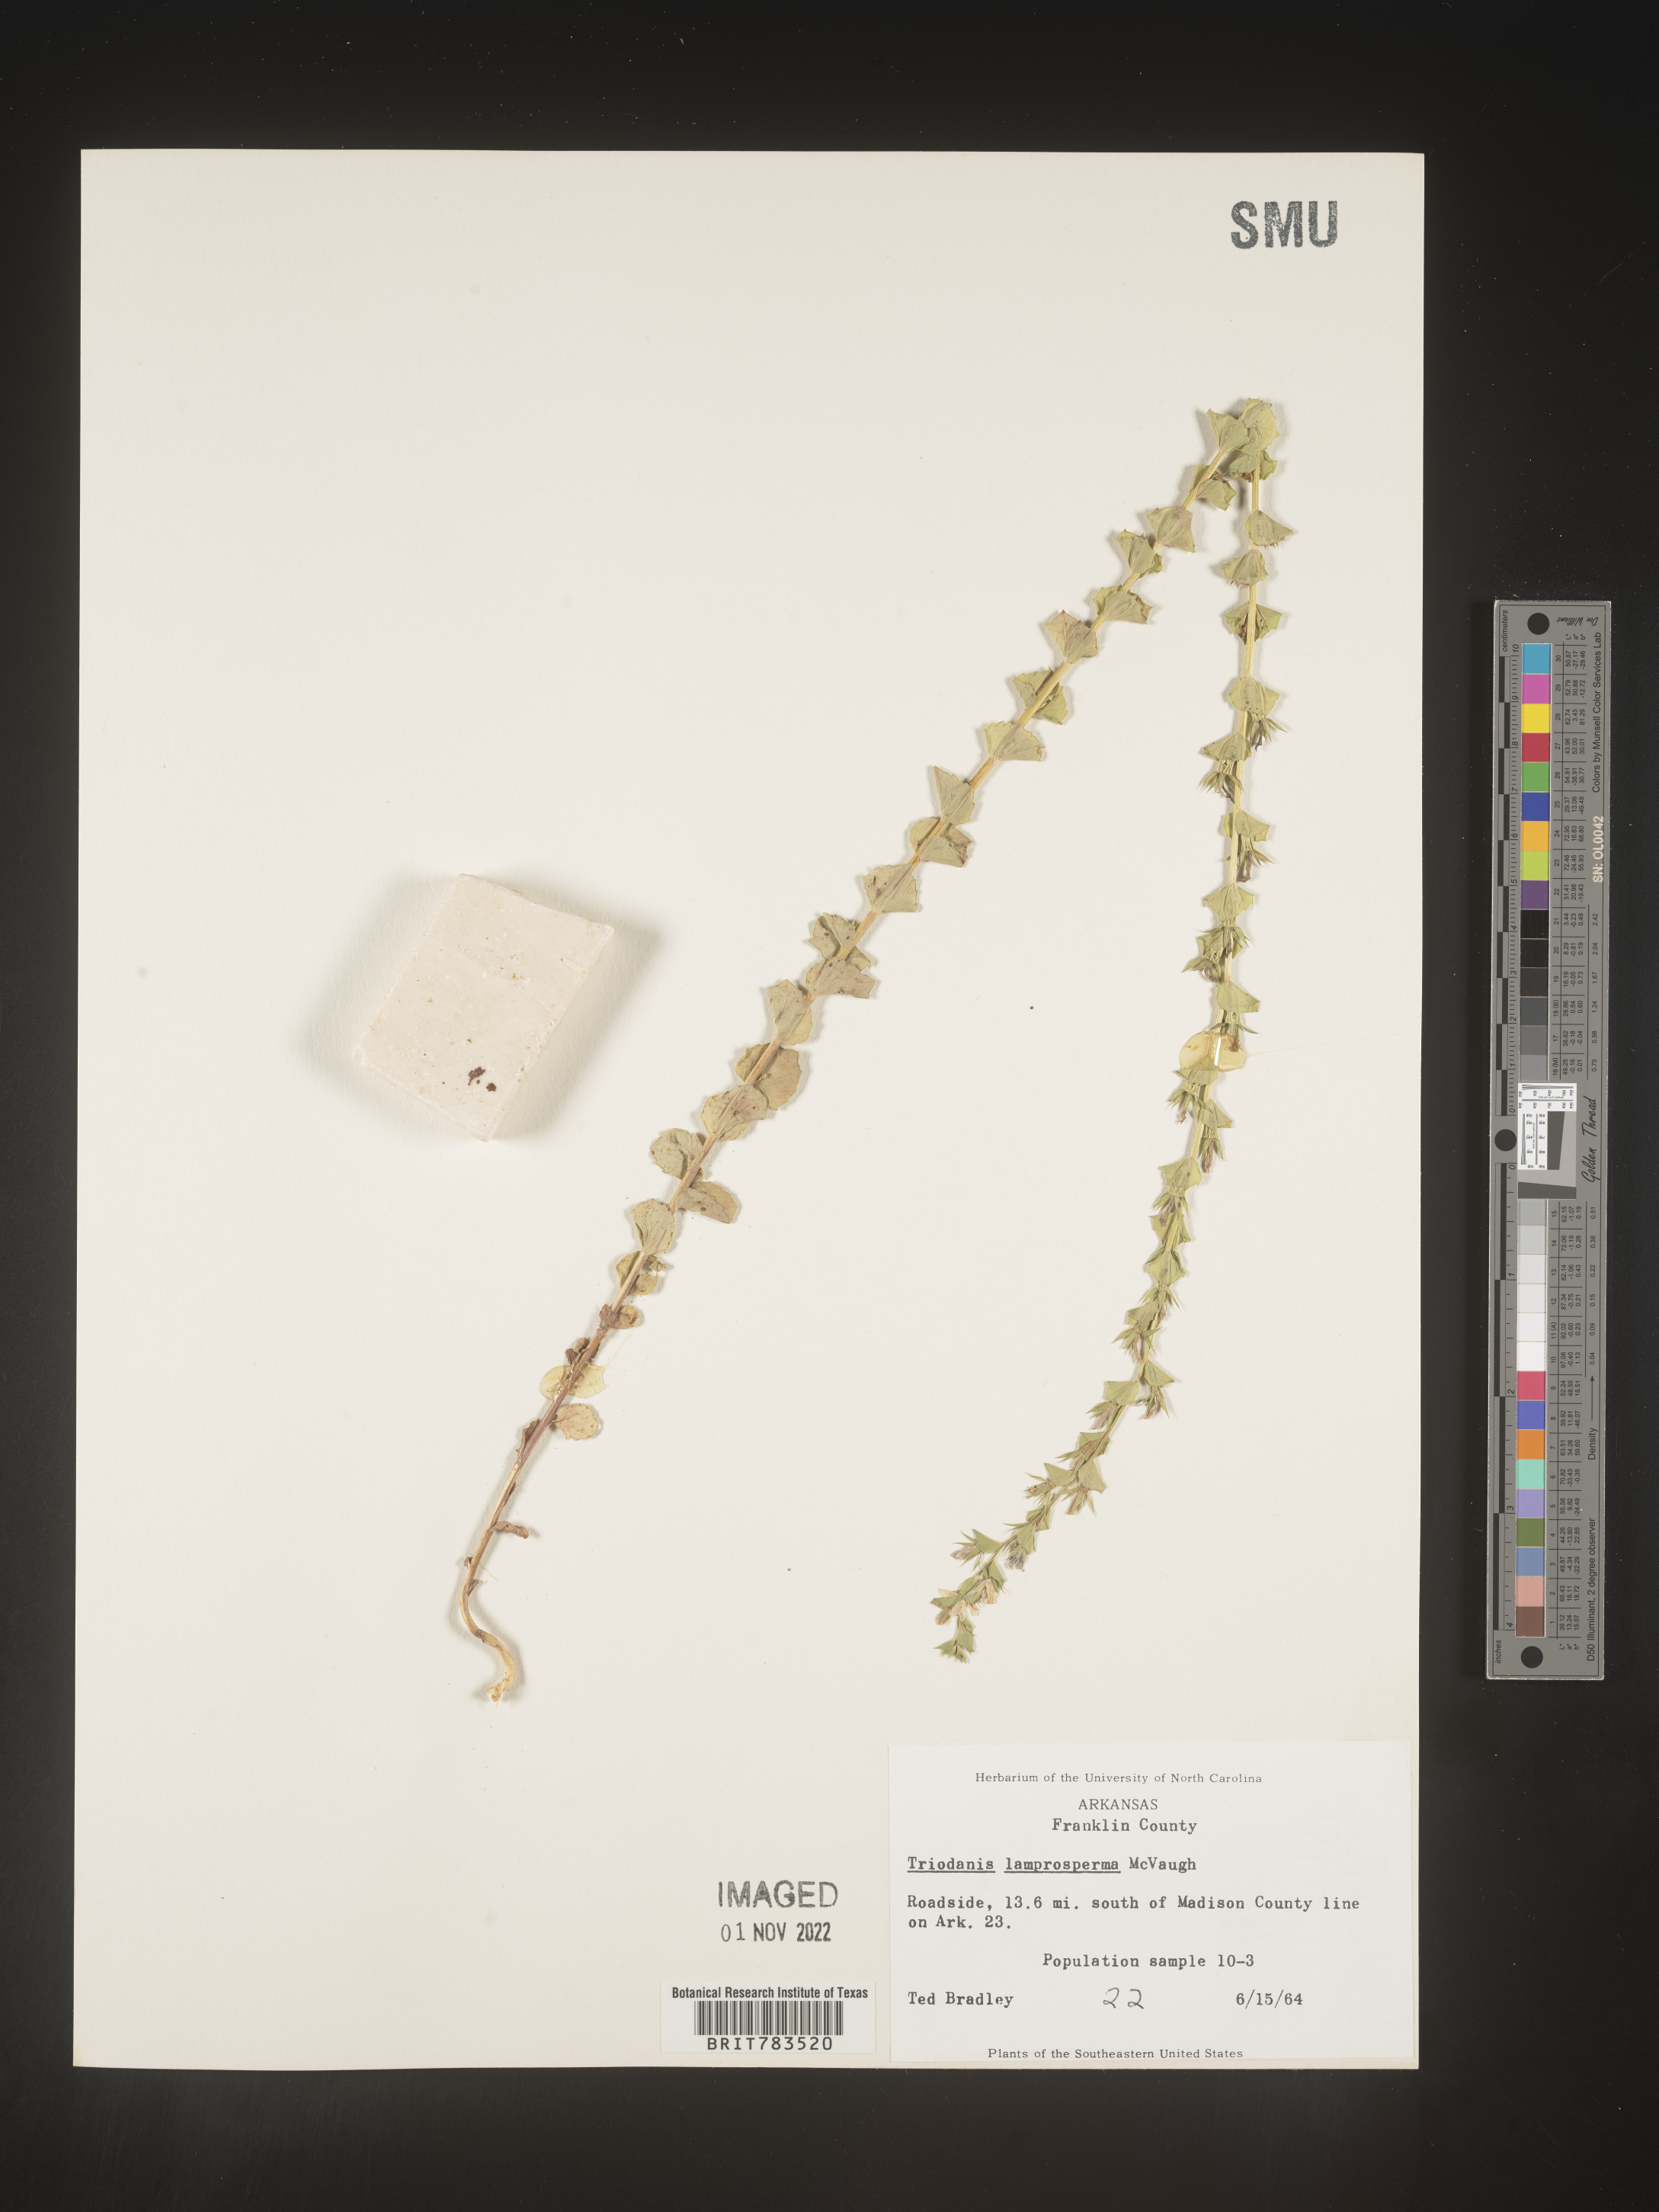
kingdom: Plantae
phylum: Tracheophyta
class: Magnoliopsida
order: Asterales
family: Campanulaceae
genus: Triodanis
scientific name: Triodanis lamprosperma
